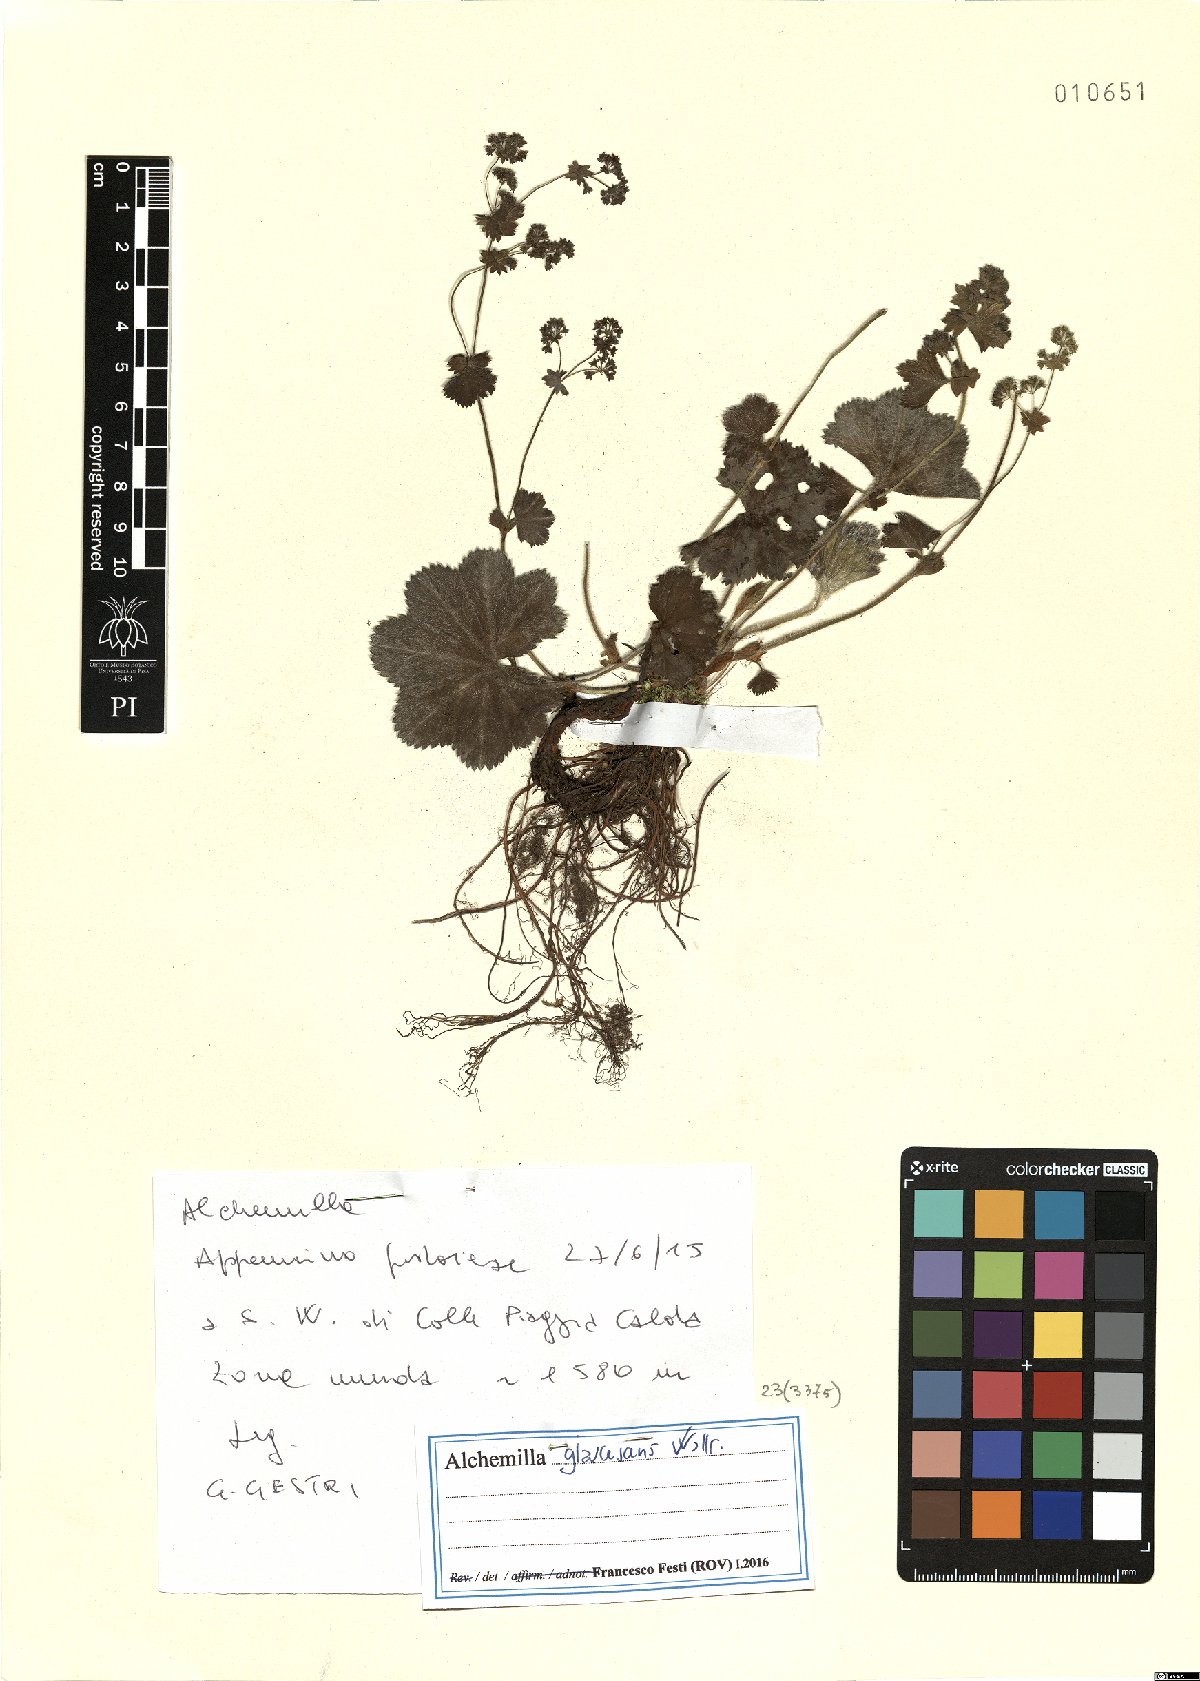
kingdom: Plantae
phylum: Tracheophyta
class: Magnoliopsida
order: Rosales
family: Rosaceae
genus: Alchemilla
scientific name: Alchemilla glaucescens
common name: Silky lady's mantle
